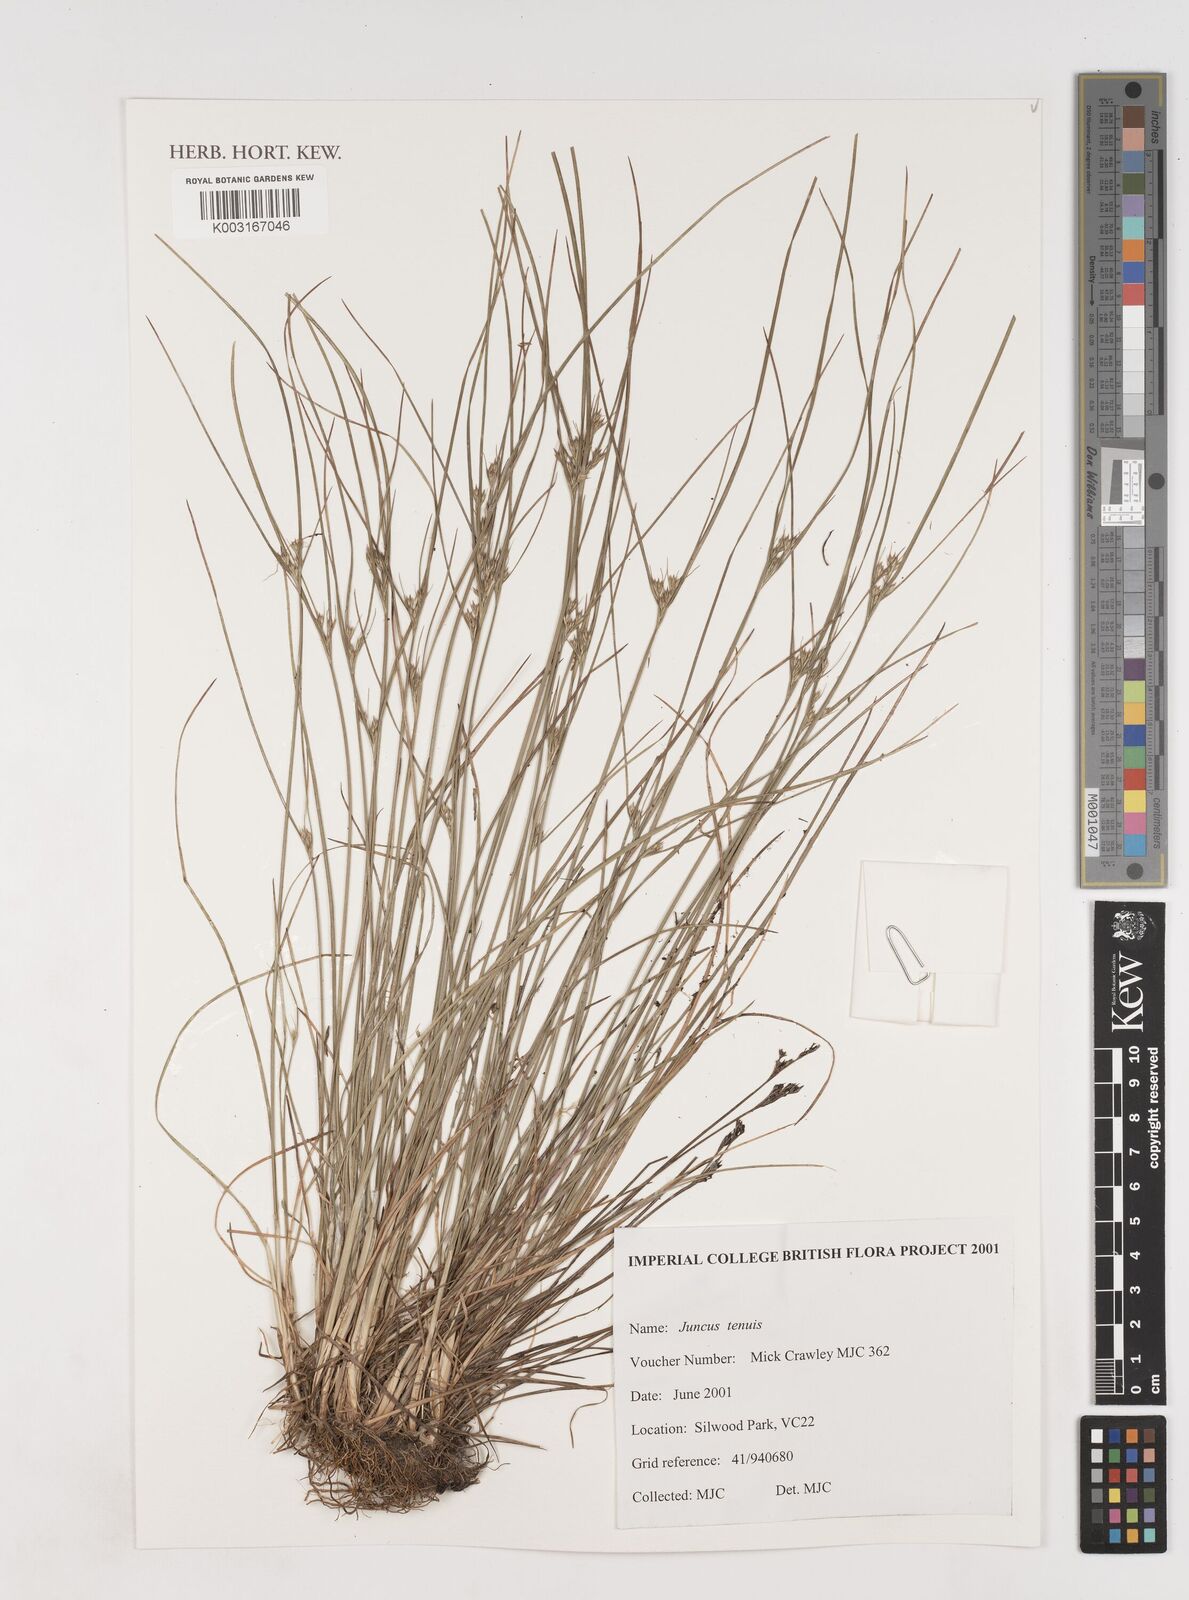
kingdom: Plantae
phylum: Tracheophyta
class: Liliopsida
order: Poales
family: Juncaceae
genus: Juncus
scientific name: Juncus tenuis
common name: Slender rush
